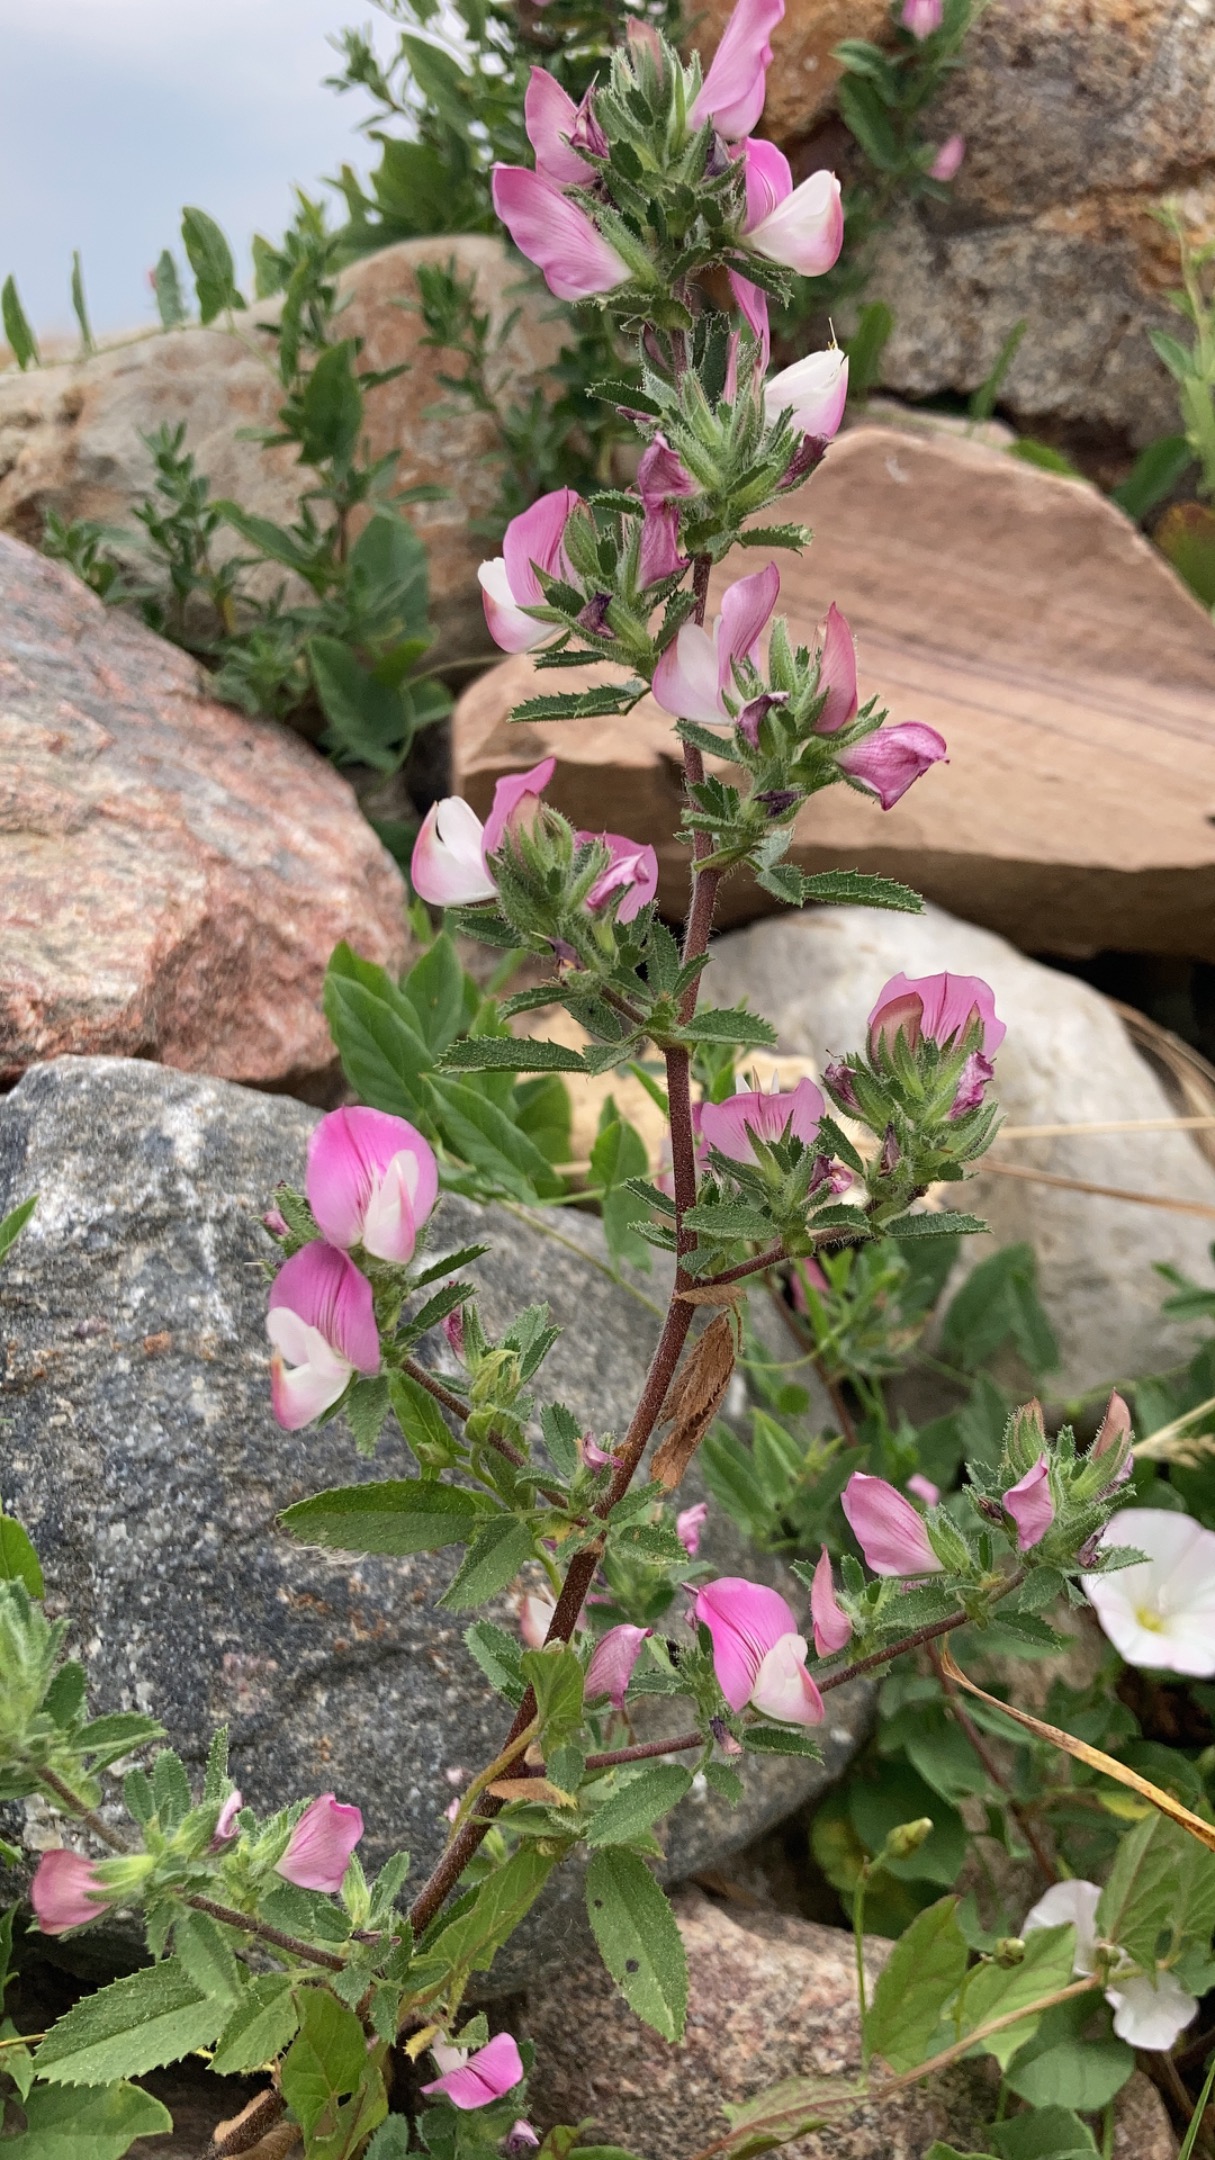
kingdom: Plantae
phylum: Tracheophyta
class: Magnoliopsida
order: Fabales
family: Fabaceae
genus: Ononis
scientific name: Ononis spinosa
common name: Mark-krageklo
